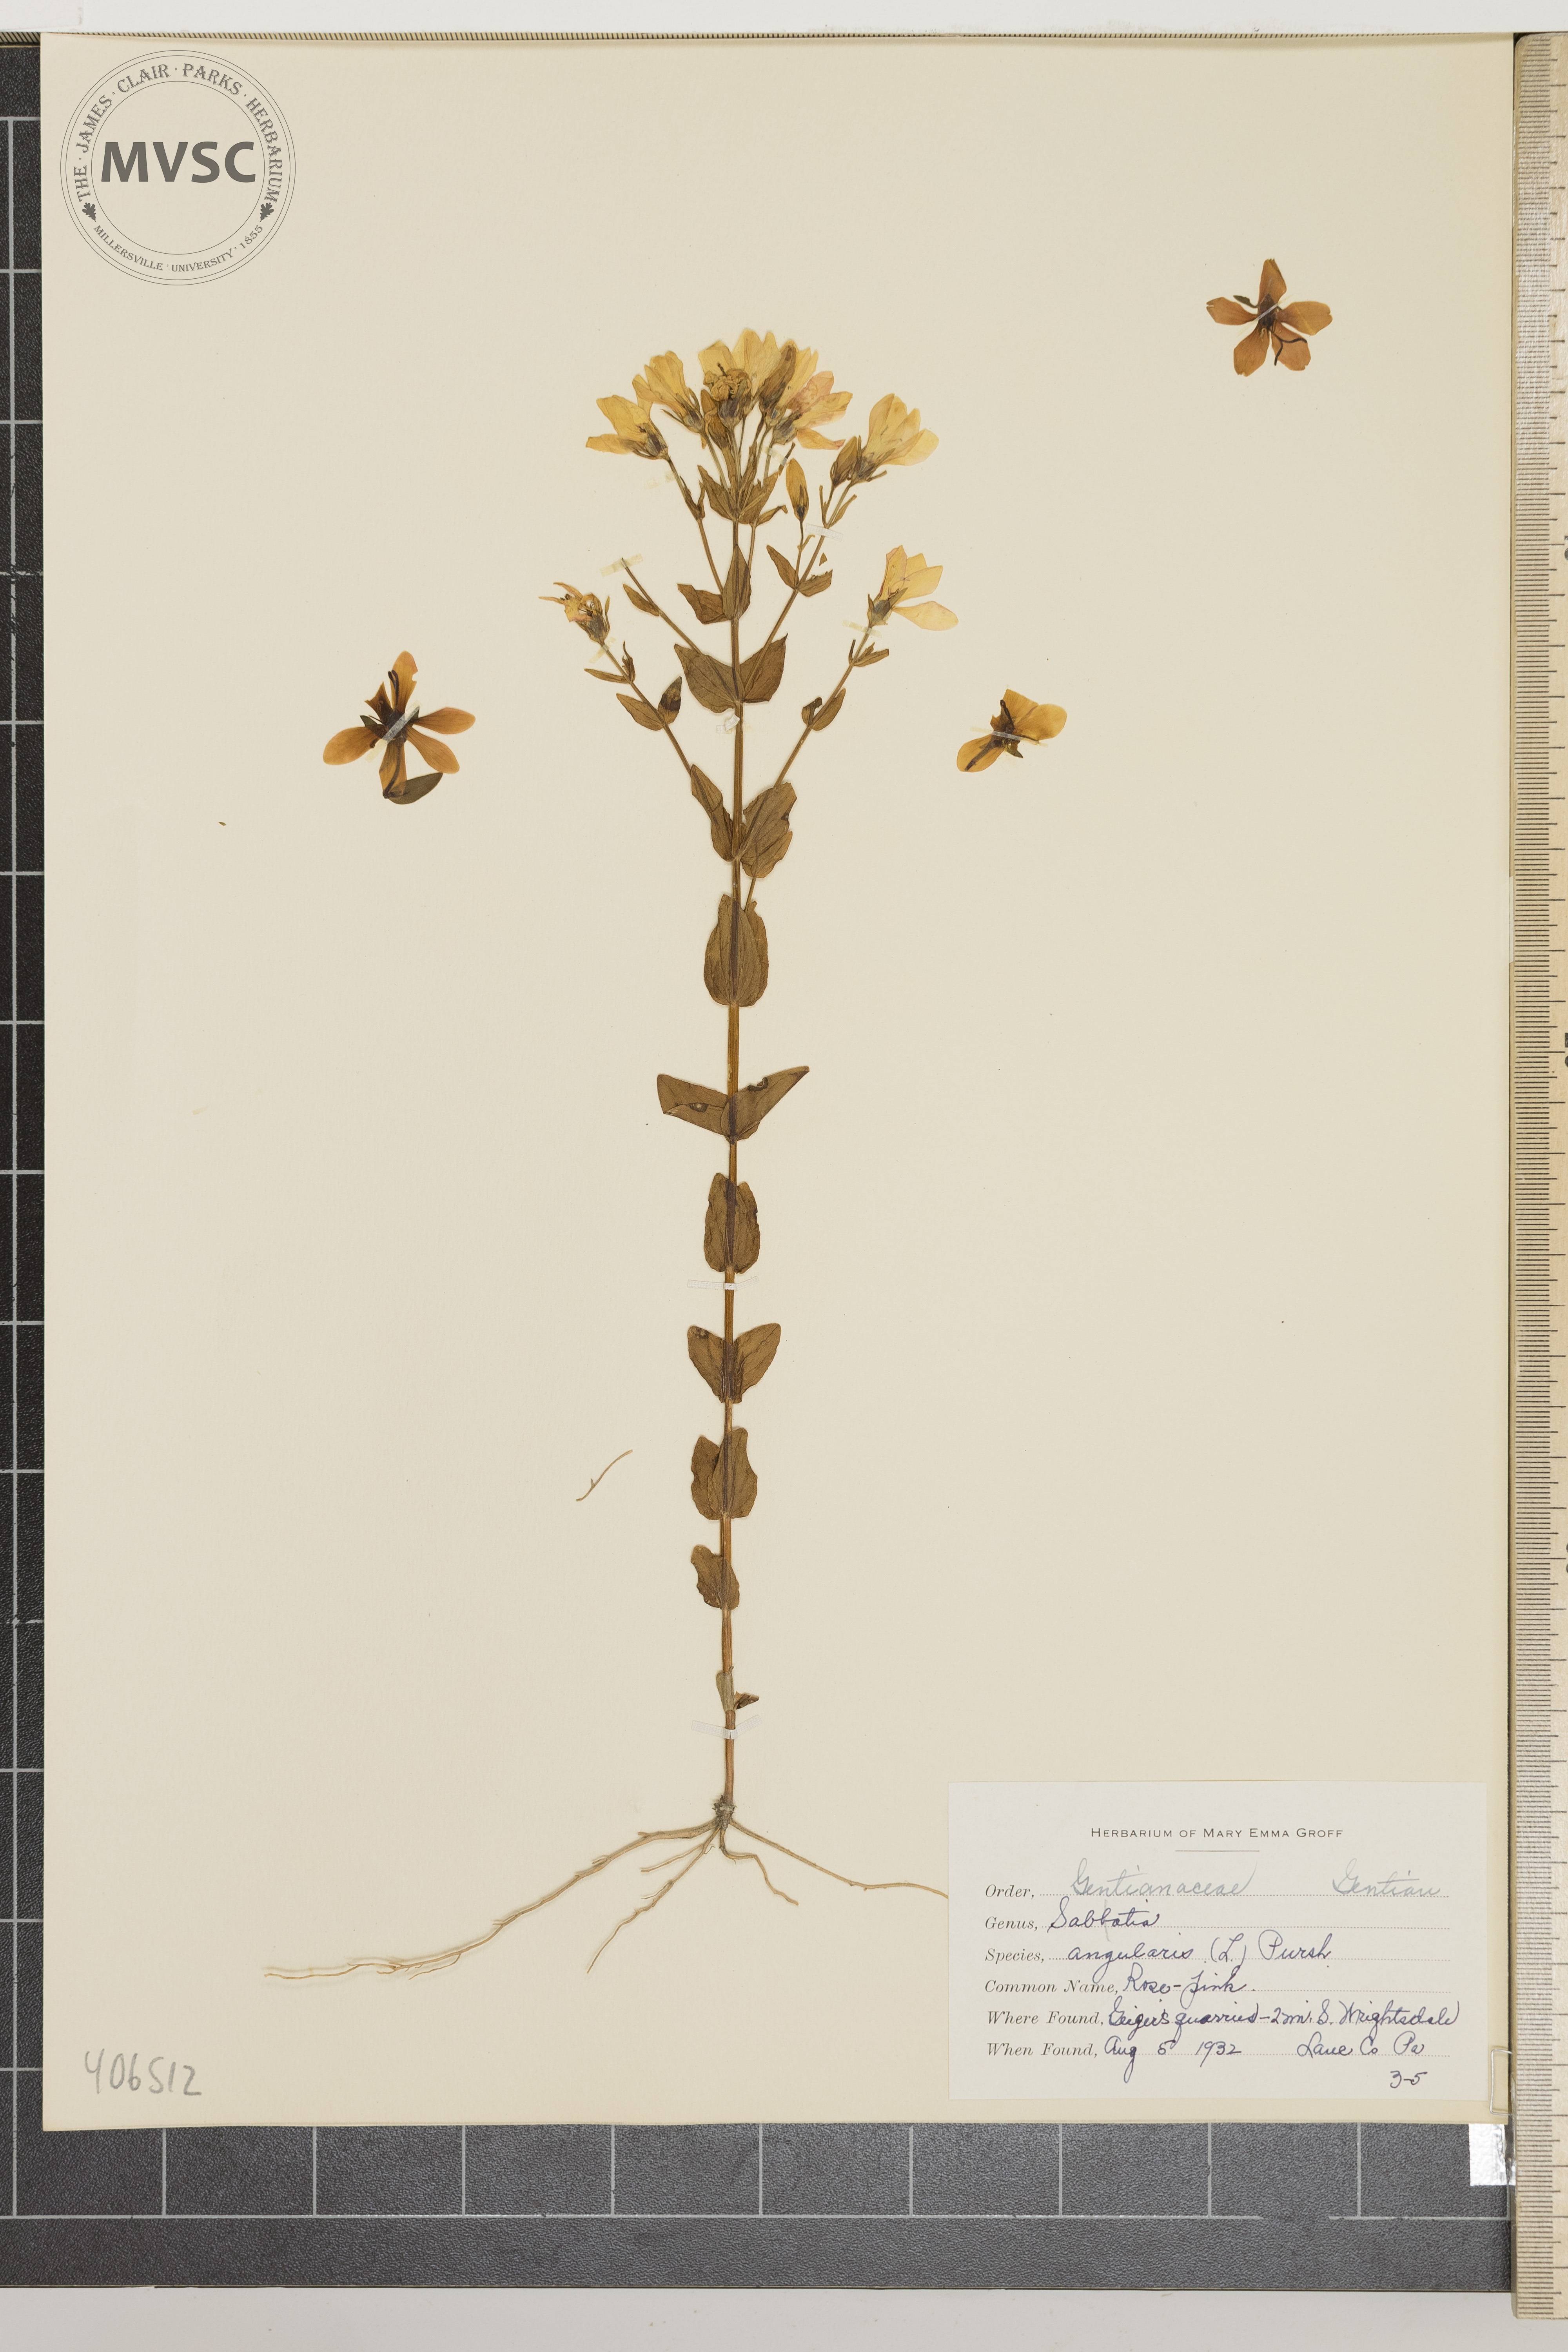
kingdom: Plantae
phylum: Tracheophyta
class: Magnoliopsida
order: Gentianales
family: Gentianaceae
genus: Sabatia
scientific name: Sabatia angularis
